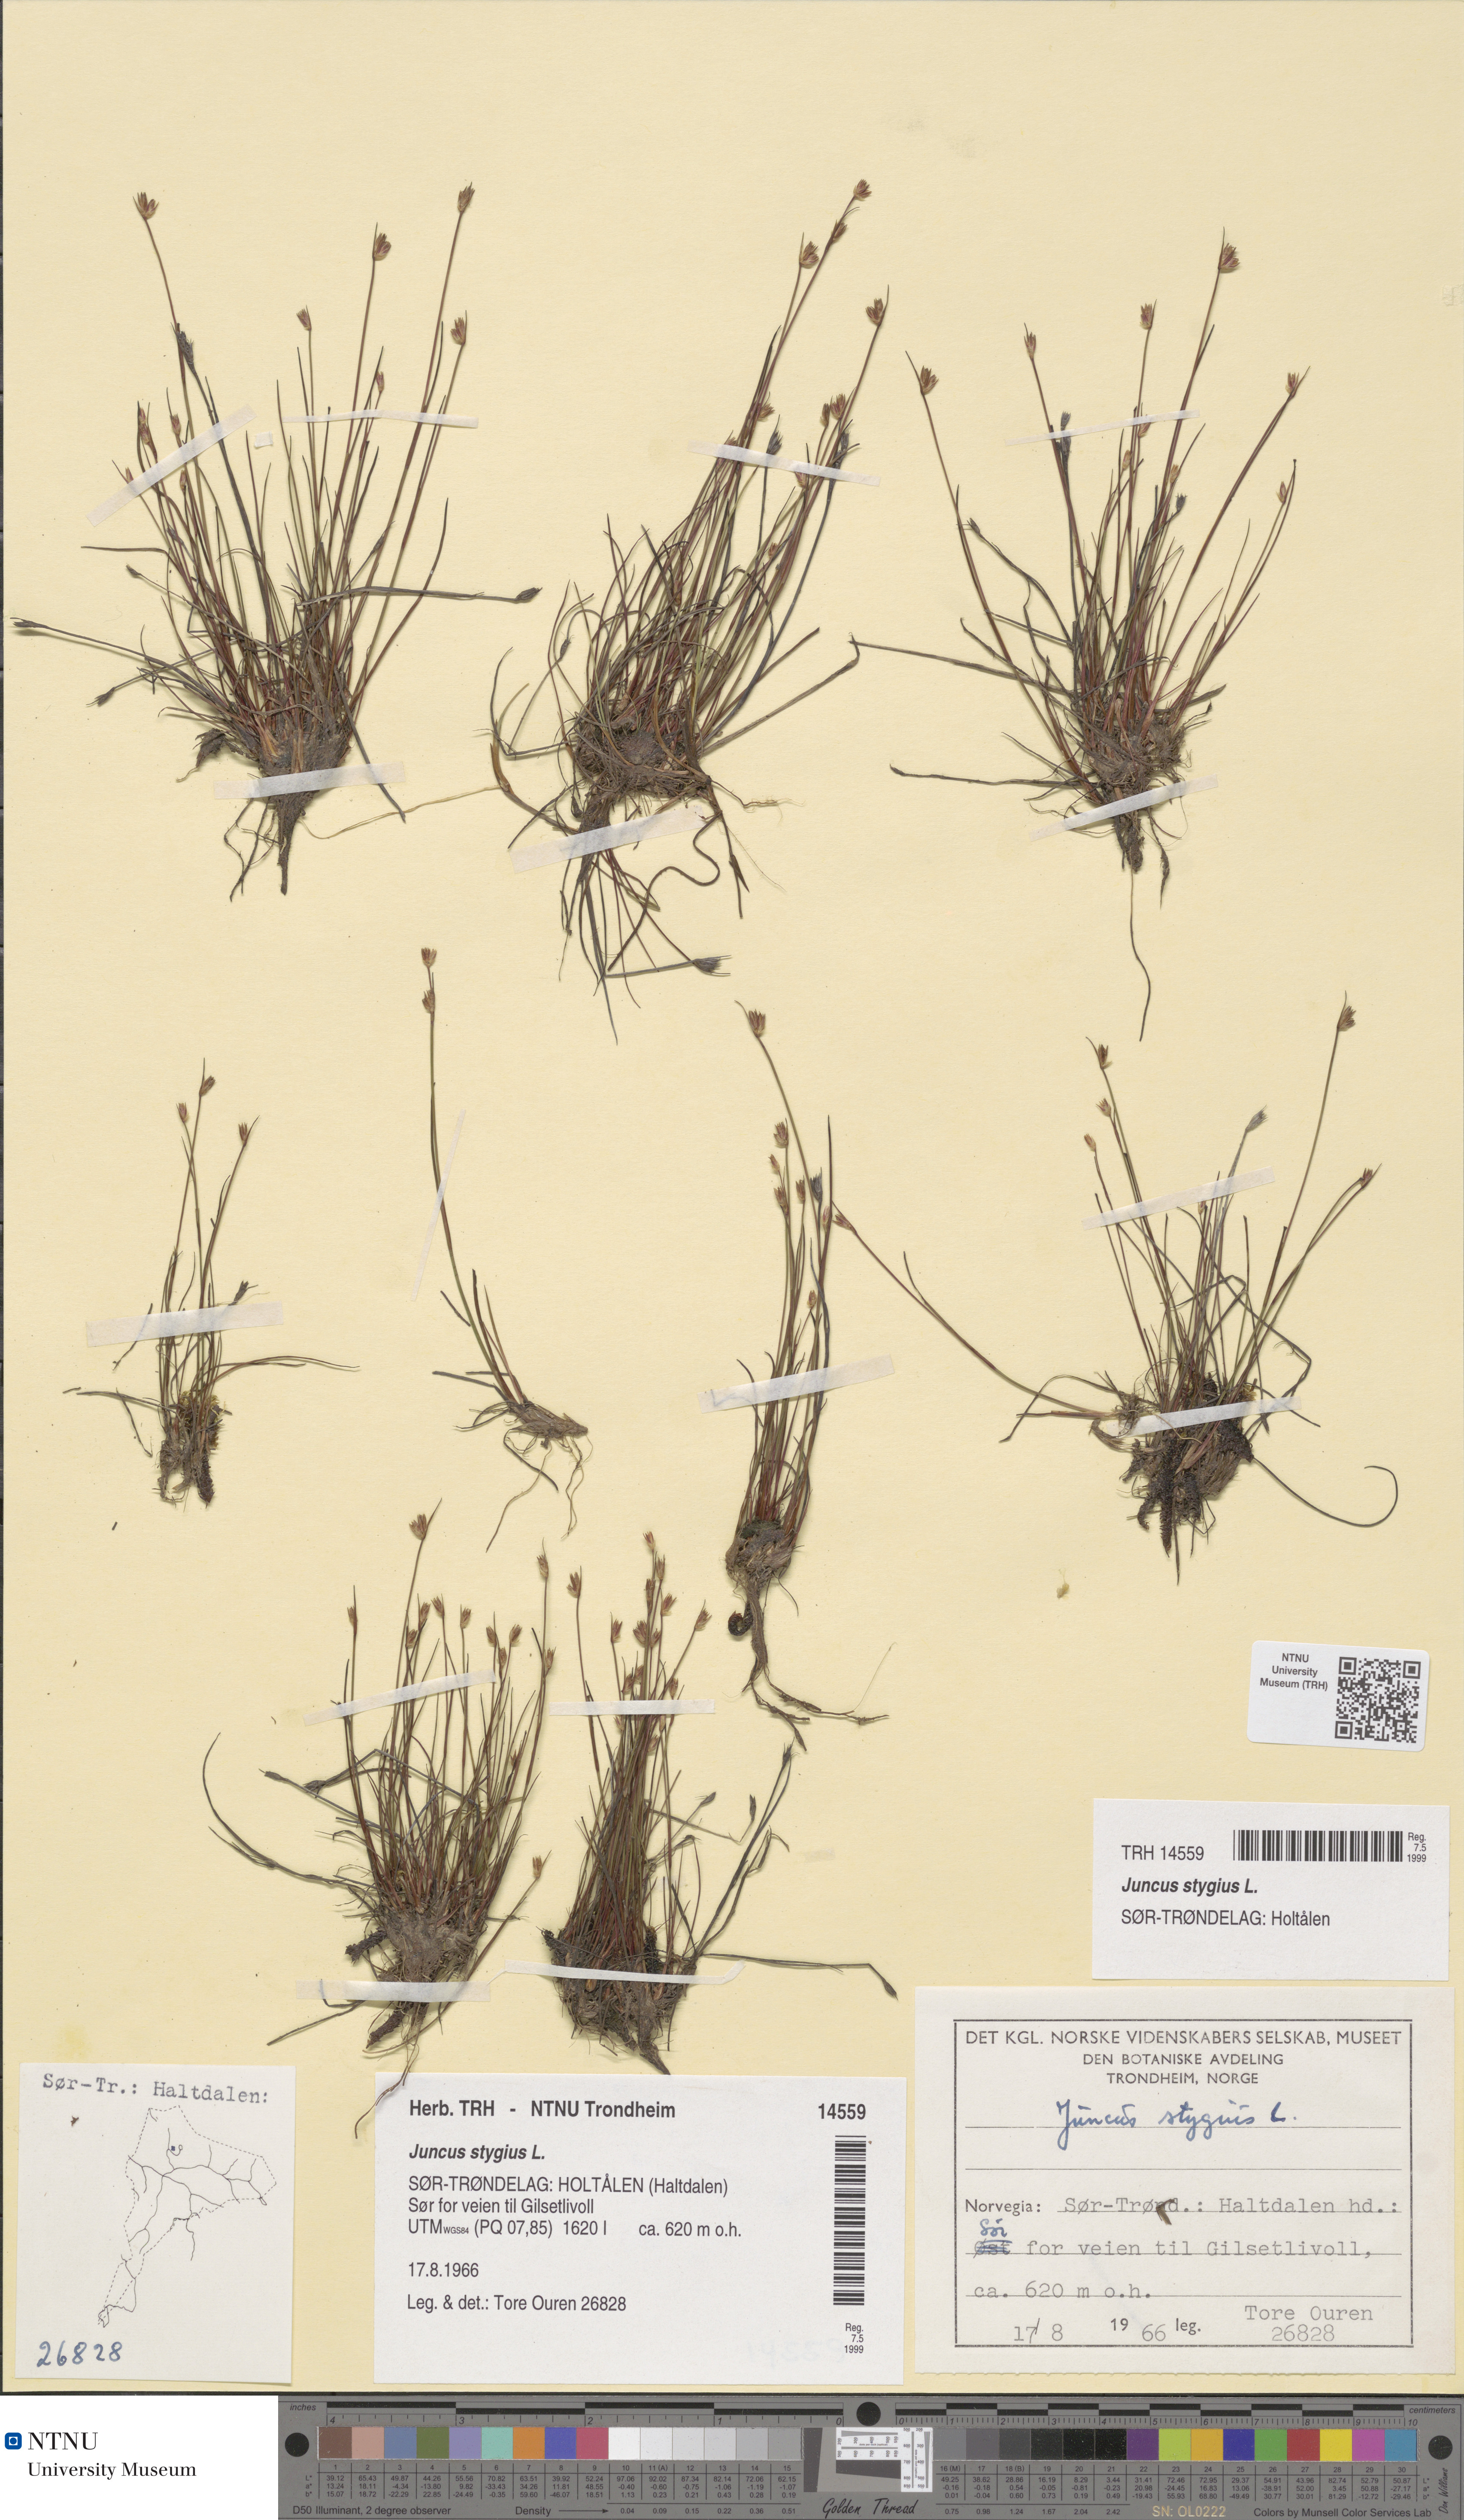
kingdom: Plantae
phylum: Tracheophyta
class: Liliopsida
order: Poales
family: Juncaceae
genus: Juncus
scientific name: Juncus stygius
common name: Bog rush
